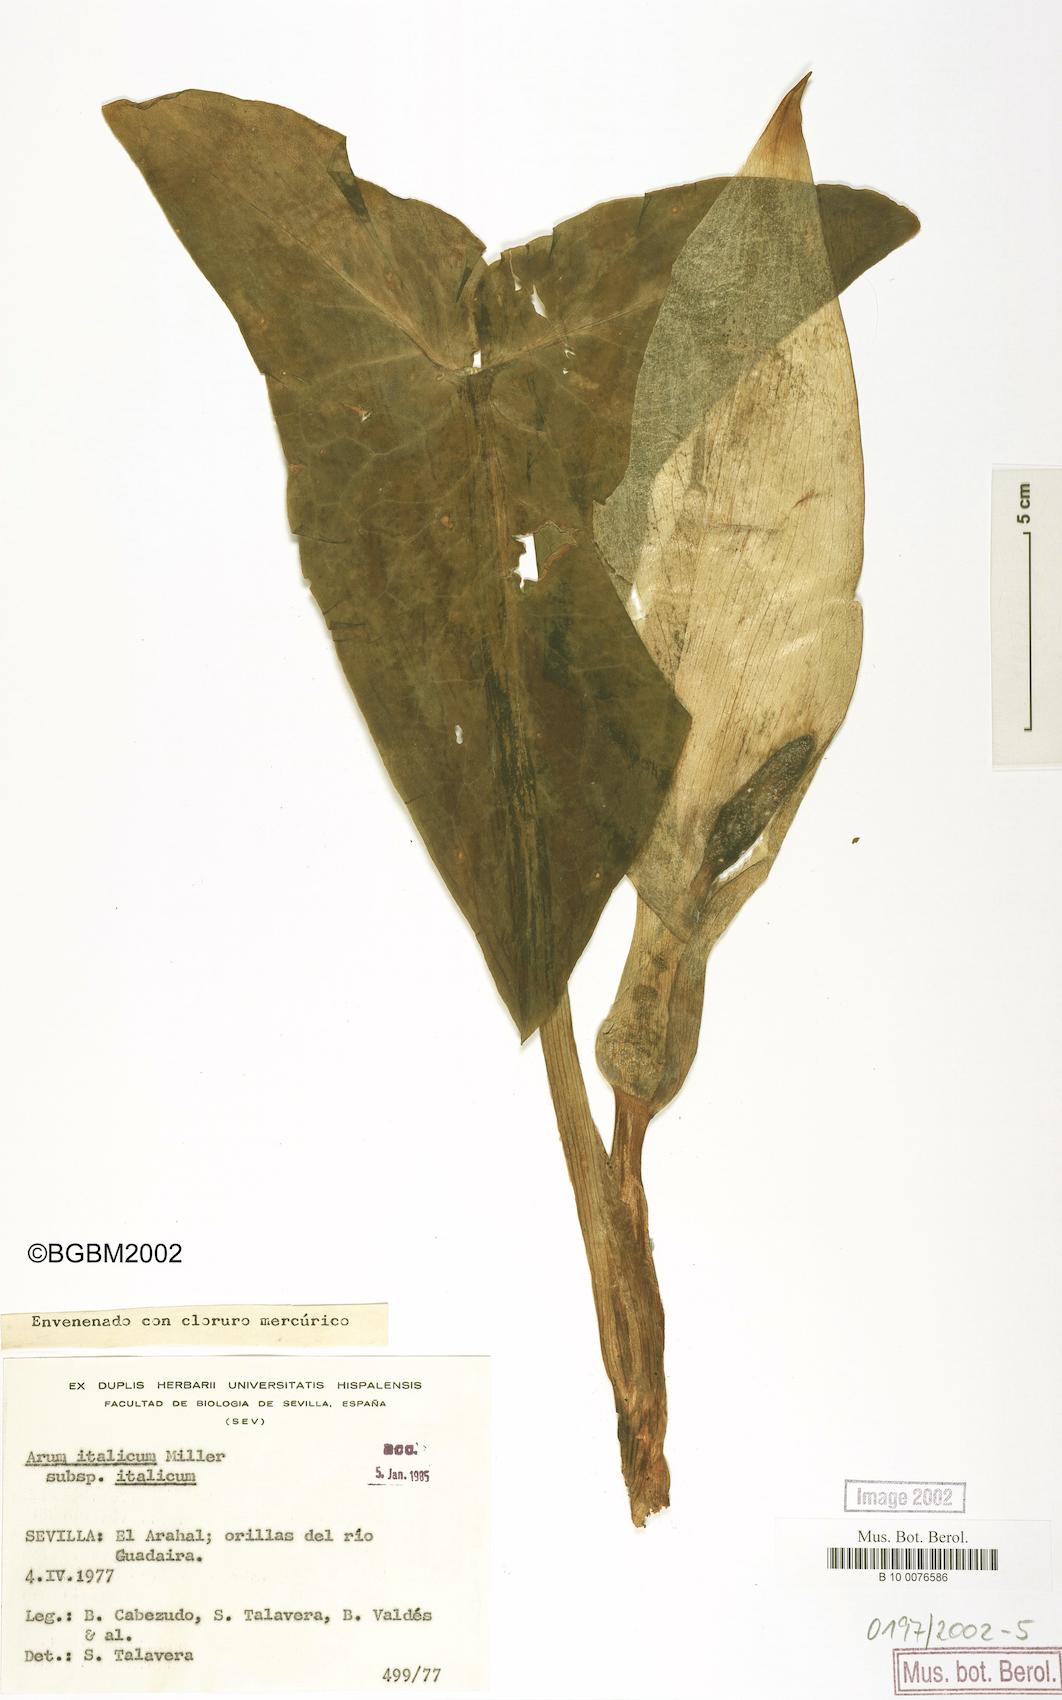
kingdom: Plantae
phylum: Tracheophyta
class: Liliopsida
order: Alismatales
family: Araceae
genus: Arum
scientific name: Arum italicum
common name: Italian lords-and-ladies
